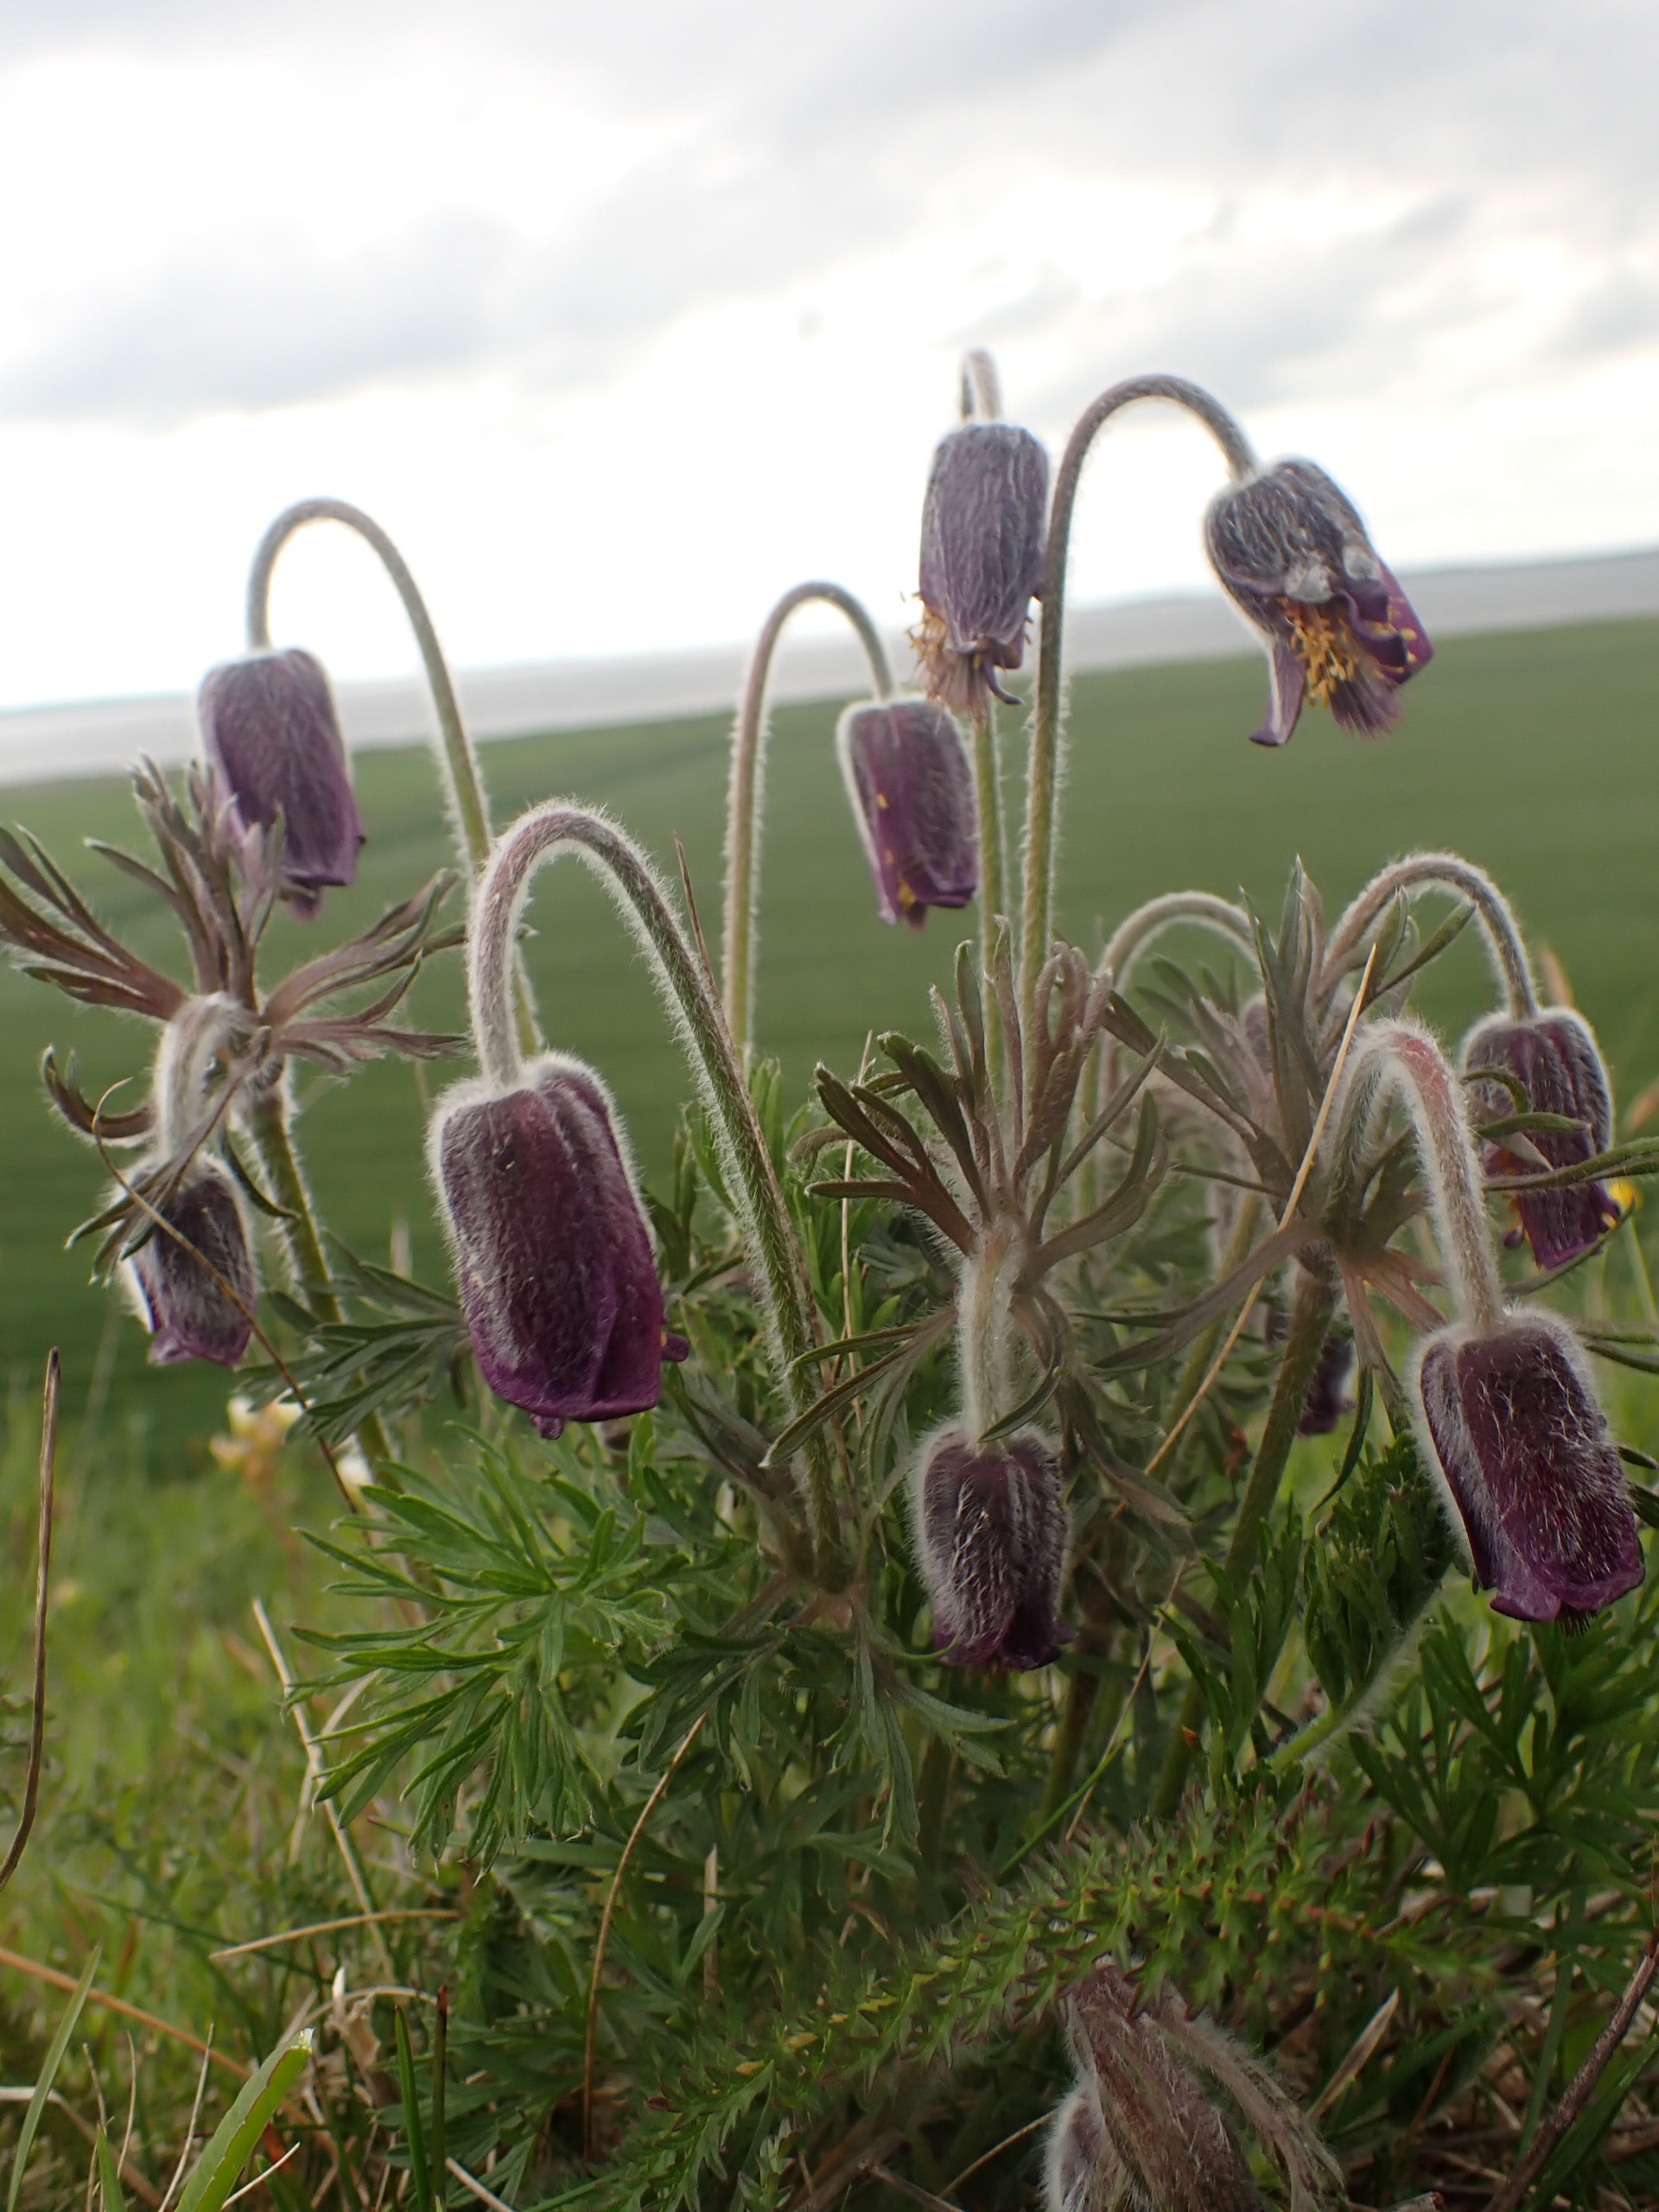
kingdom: Plantae
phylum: Tracheophyta
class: Magnoliopsida
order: Ranunculales
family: Ranunculaceae
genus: Pulsatilla
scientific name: Pulsatilla pratensis
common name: Nikkende kobjælde
